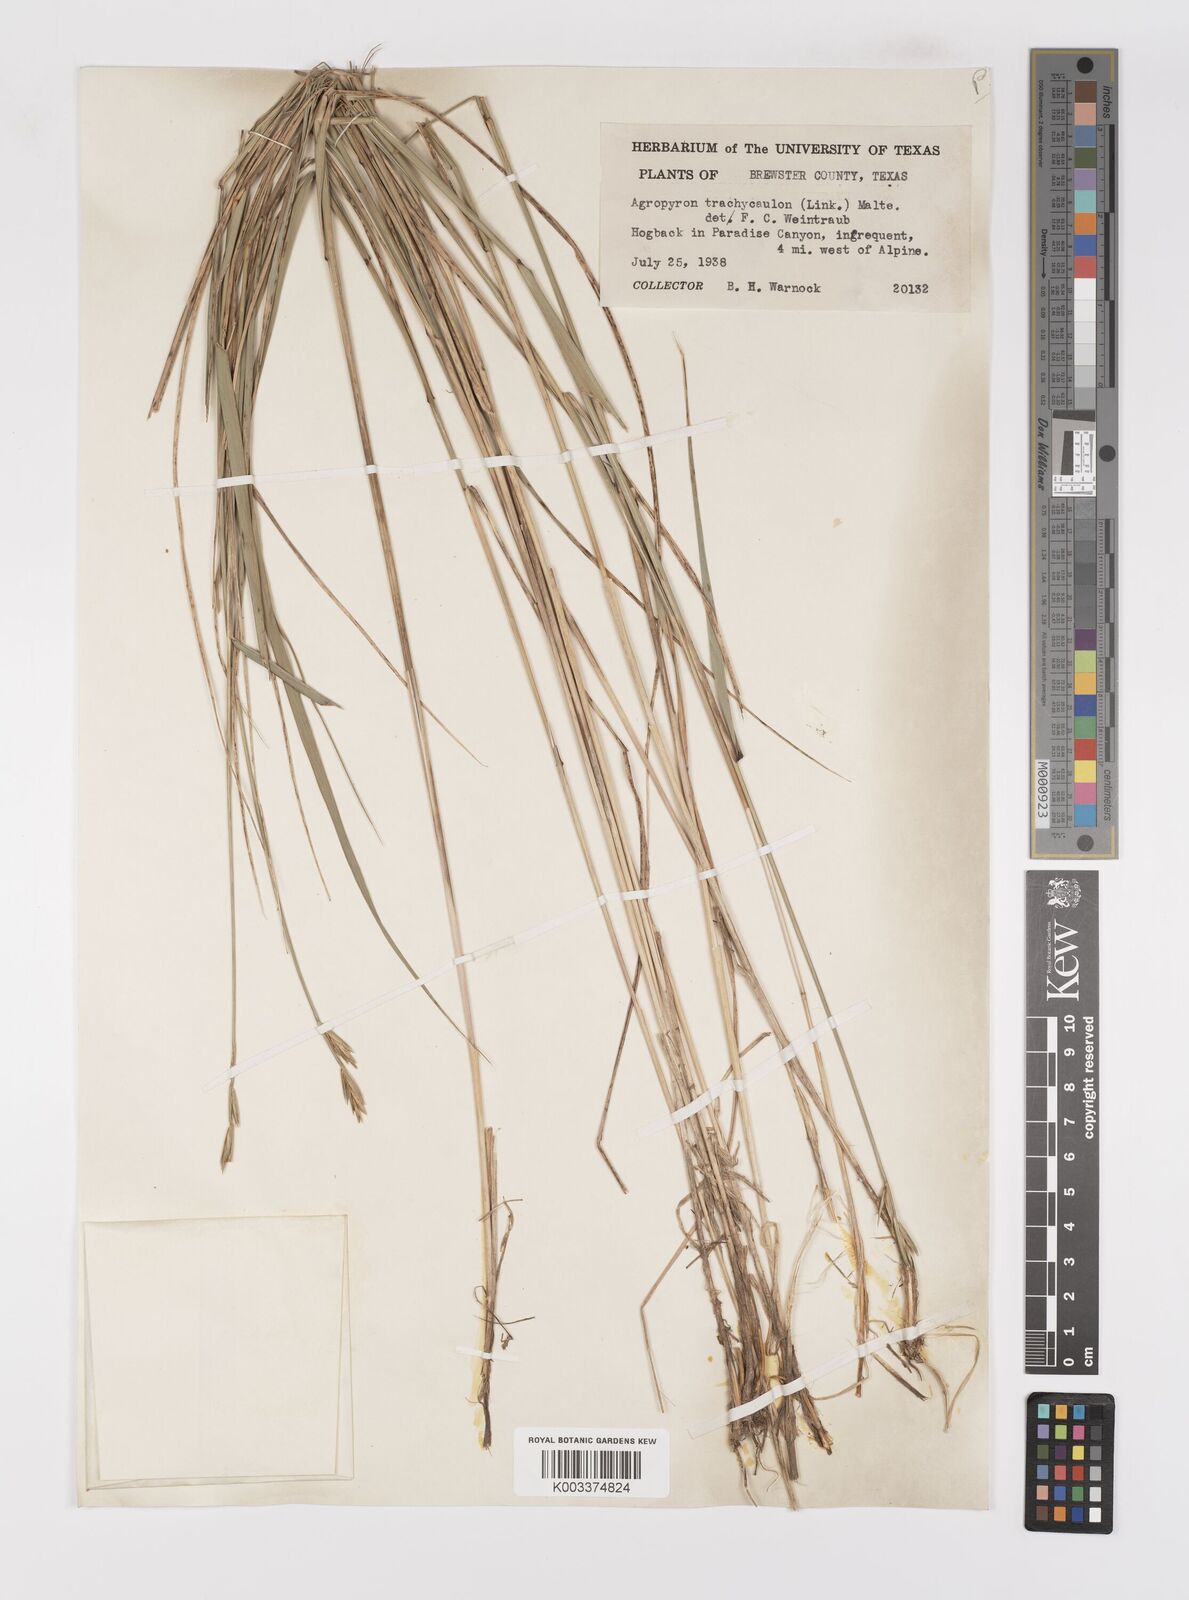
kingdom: Plantae
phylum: Tracheophyta
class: Liliopsida
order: Poales
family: Poaceae
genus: Elymus
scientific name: Elymus violaceus
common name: Arctic wheatgrass
